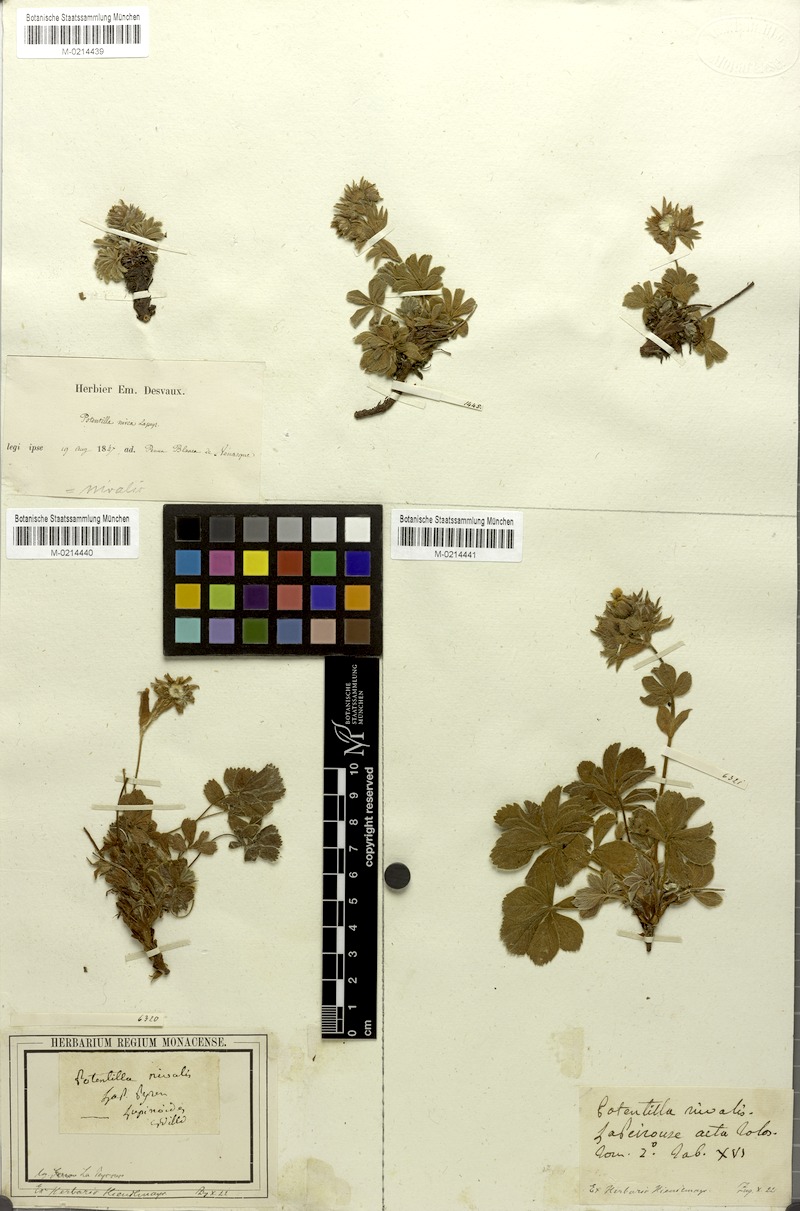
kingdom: Plantae
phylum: Tracheophyta
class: Magnoliopsida
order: Rosales
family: Rosaceae
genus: Potentilla
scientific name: Potentilla nivalis
